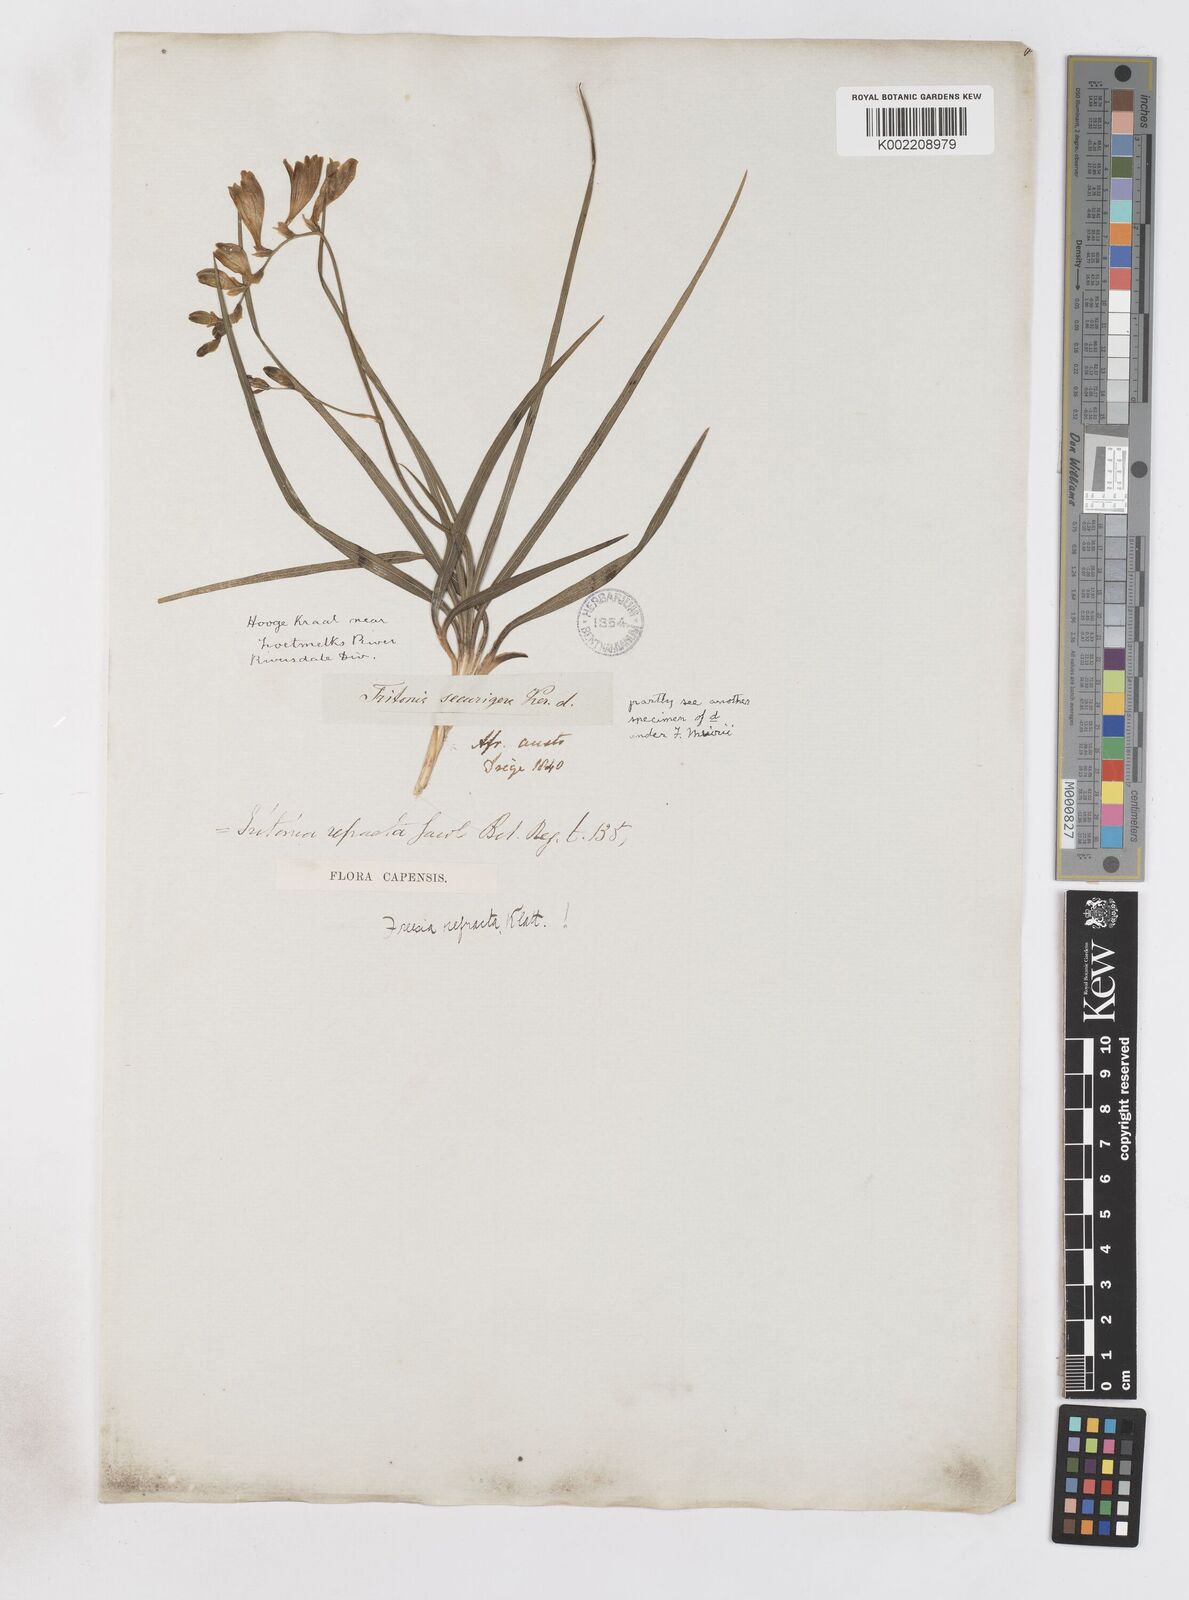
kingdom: Plantae
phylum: Tracheophyta
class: Liliopsida
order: Asparagales
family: Iridaceae
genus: Freesia
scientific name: Freesia refracta
